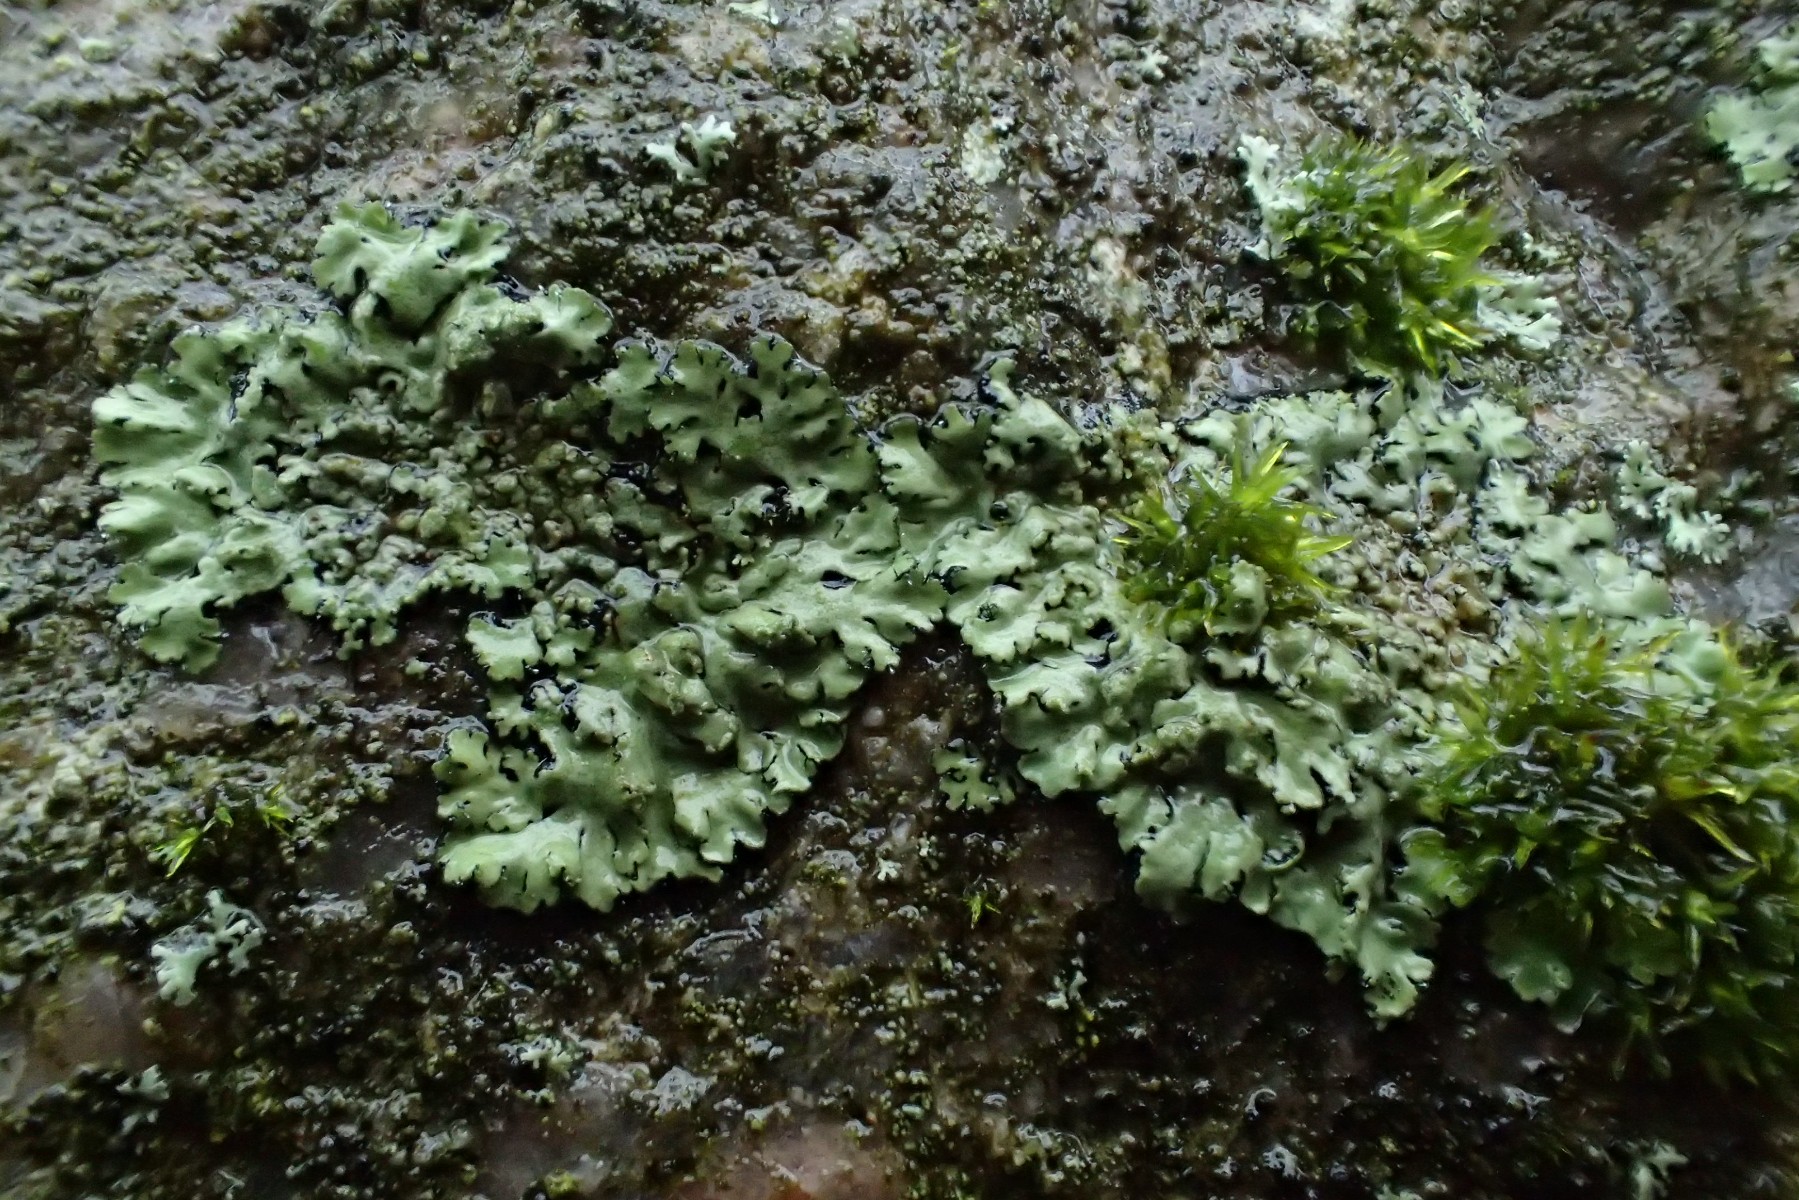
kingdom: Fungi
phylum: Ascomycota
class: Lecanoromycetes
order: Caliciales
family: Physciaceae
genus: Phaeophyscia
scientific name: Phaeophyscia orbicularis
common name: grågrøn rosetlav
